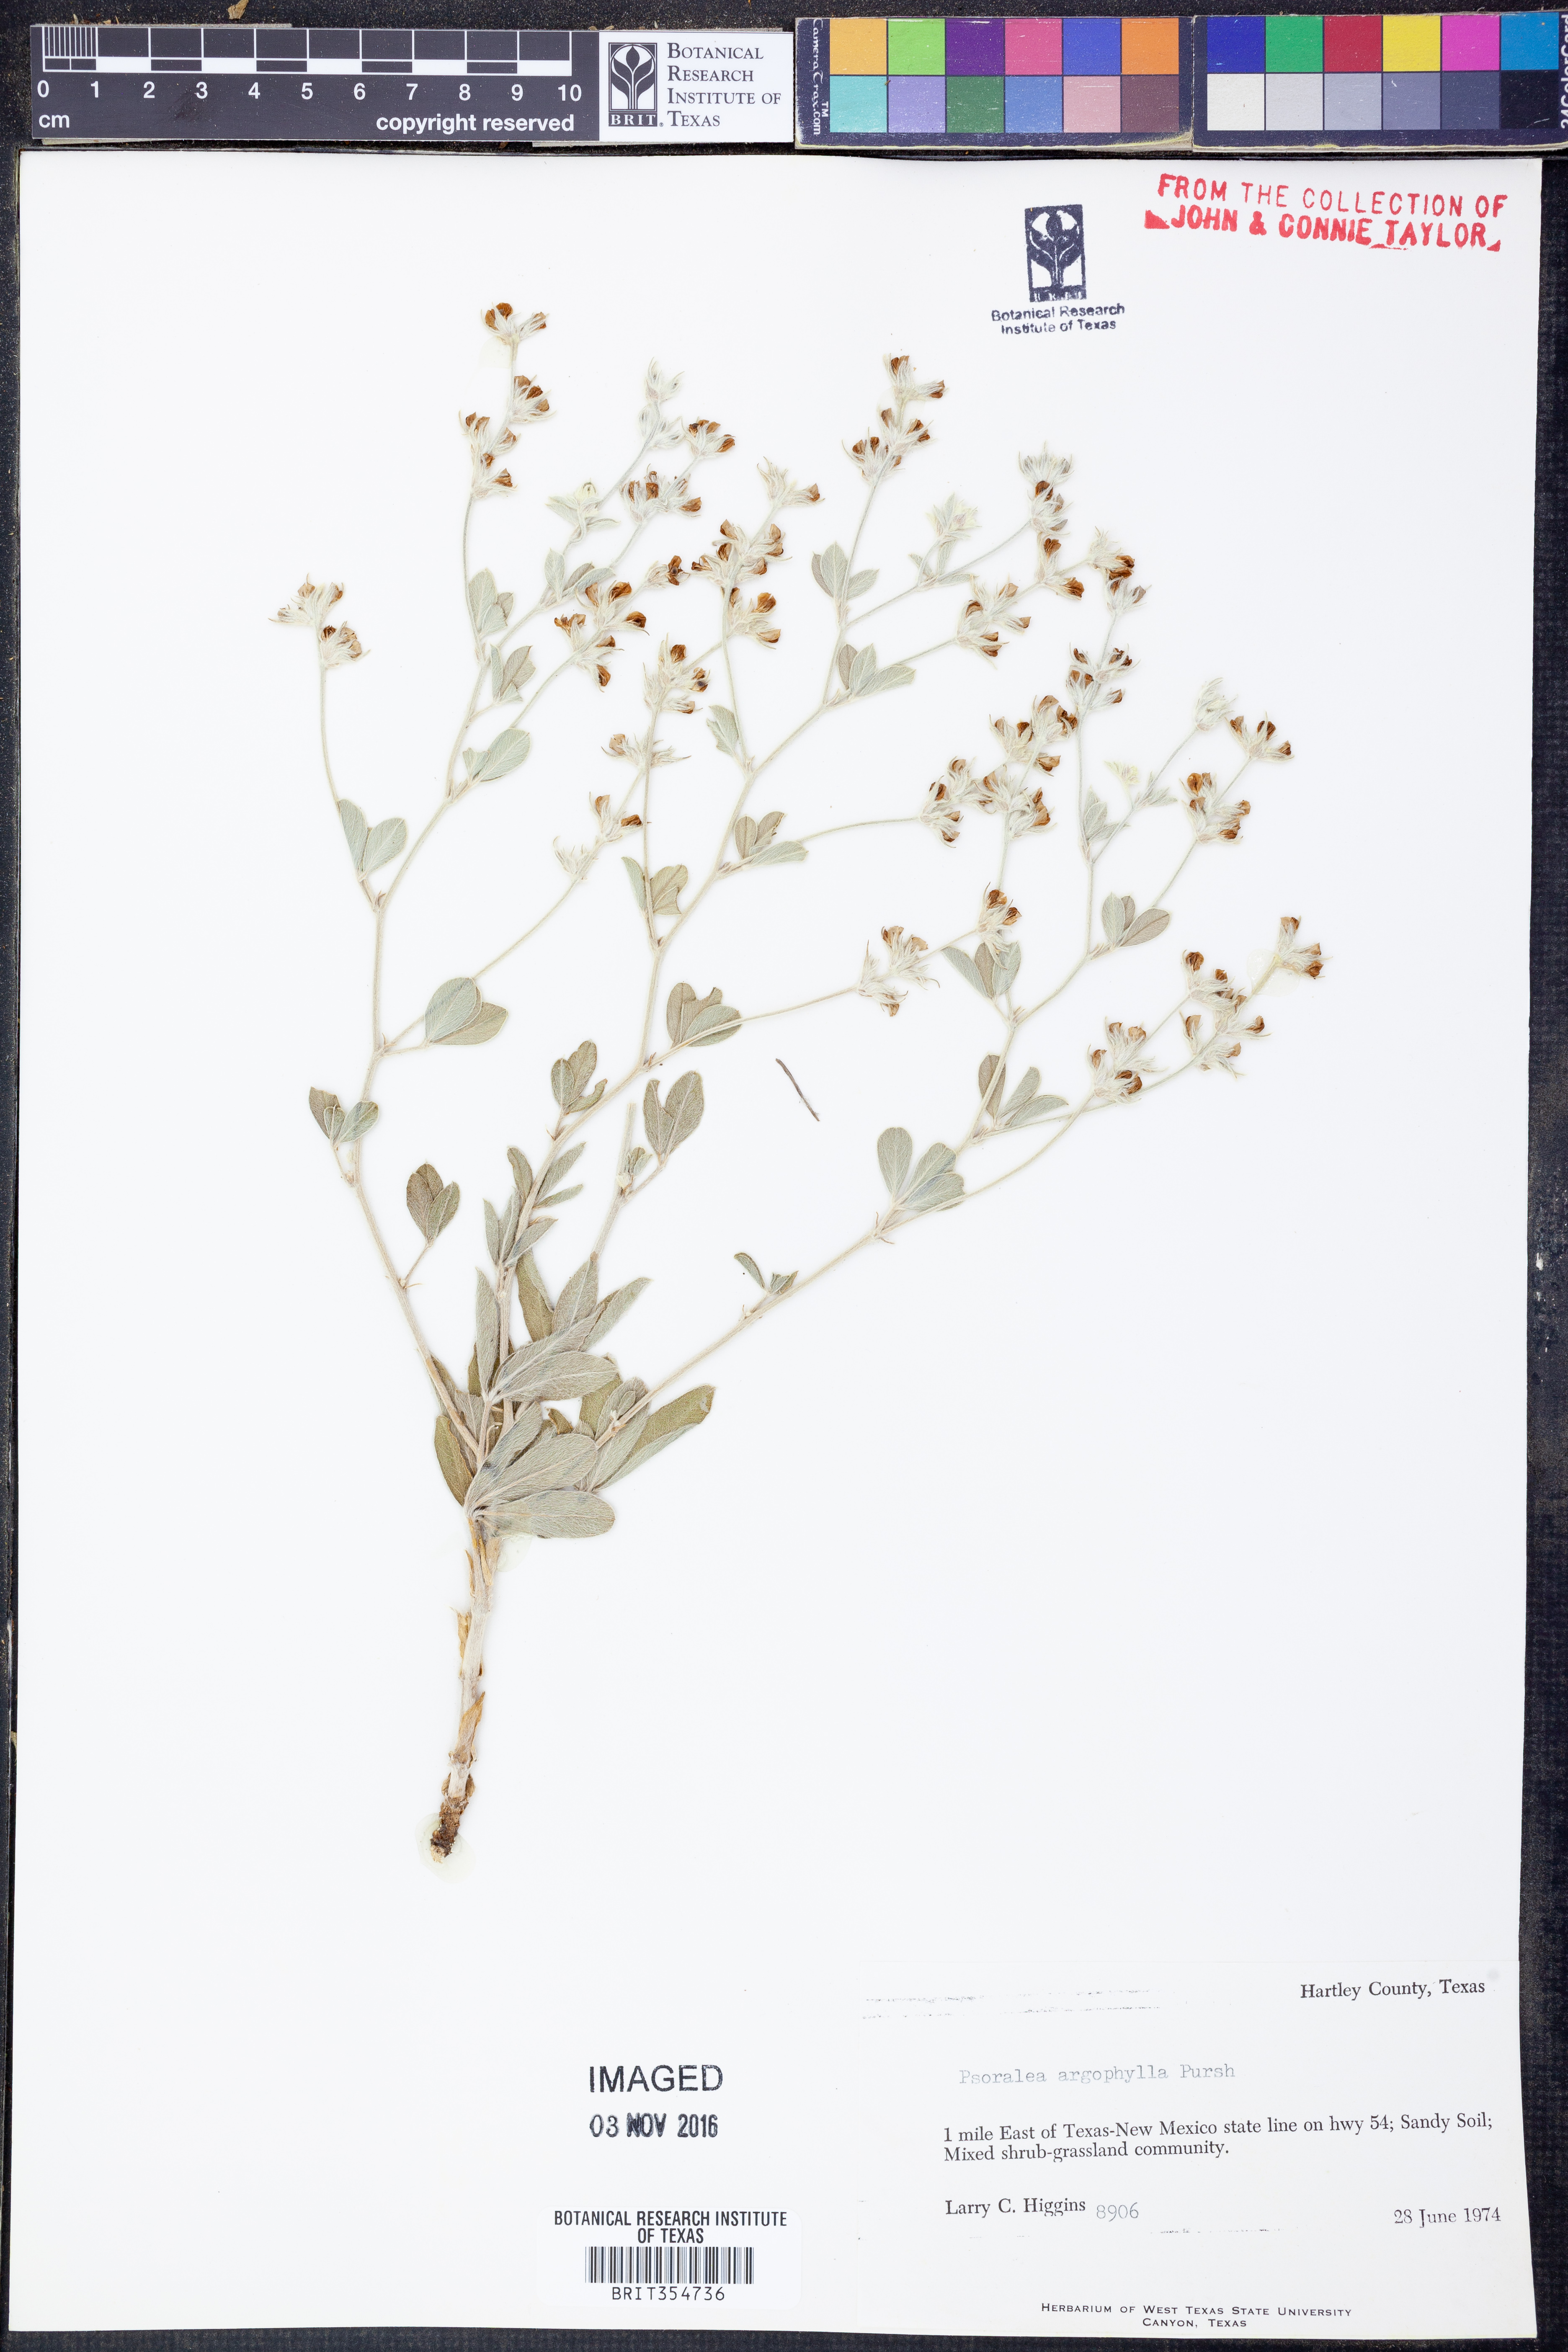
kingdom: Plantae
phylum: Tracheophyta
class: Magnoliopsida
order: Fabales
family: Fabaceae
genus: Pediomelum
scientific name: Pediomelum argophyllum
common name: Silver-leaved indian breadroot
